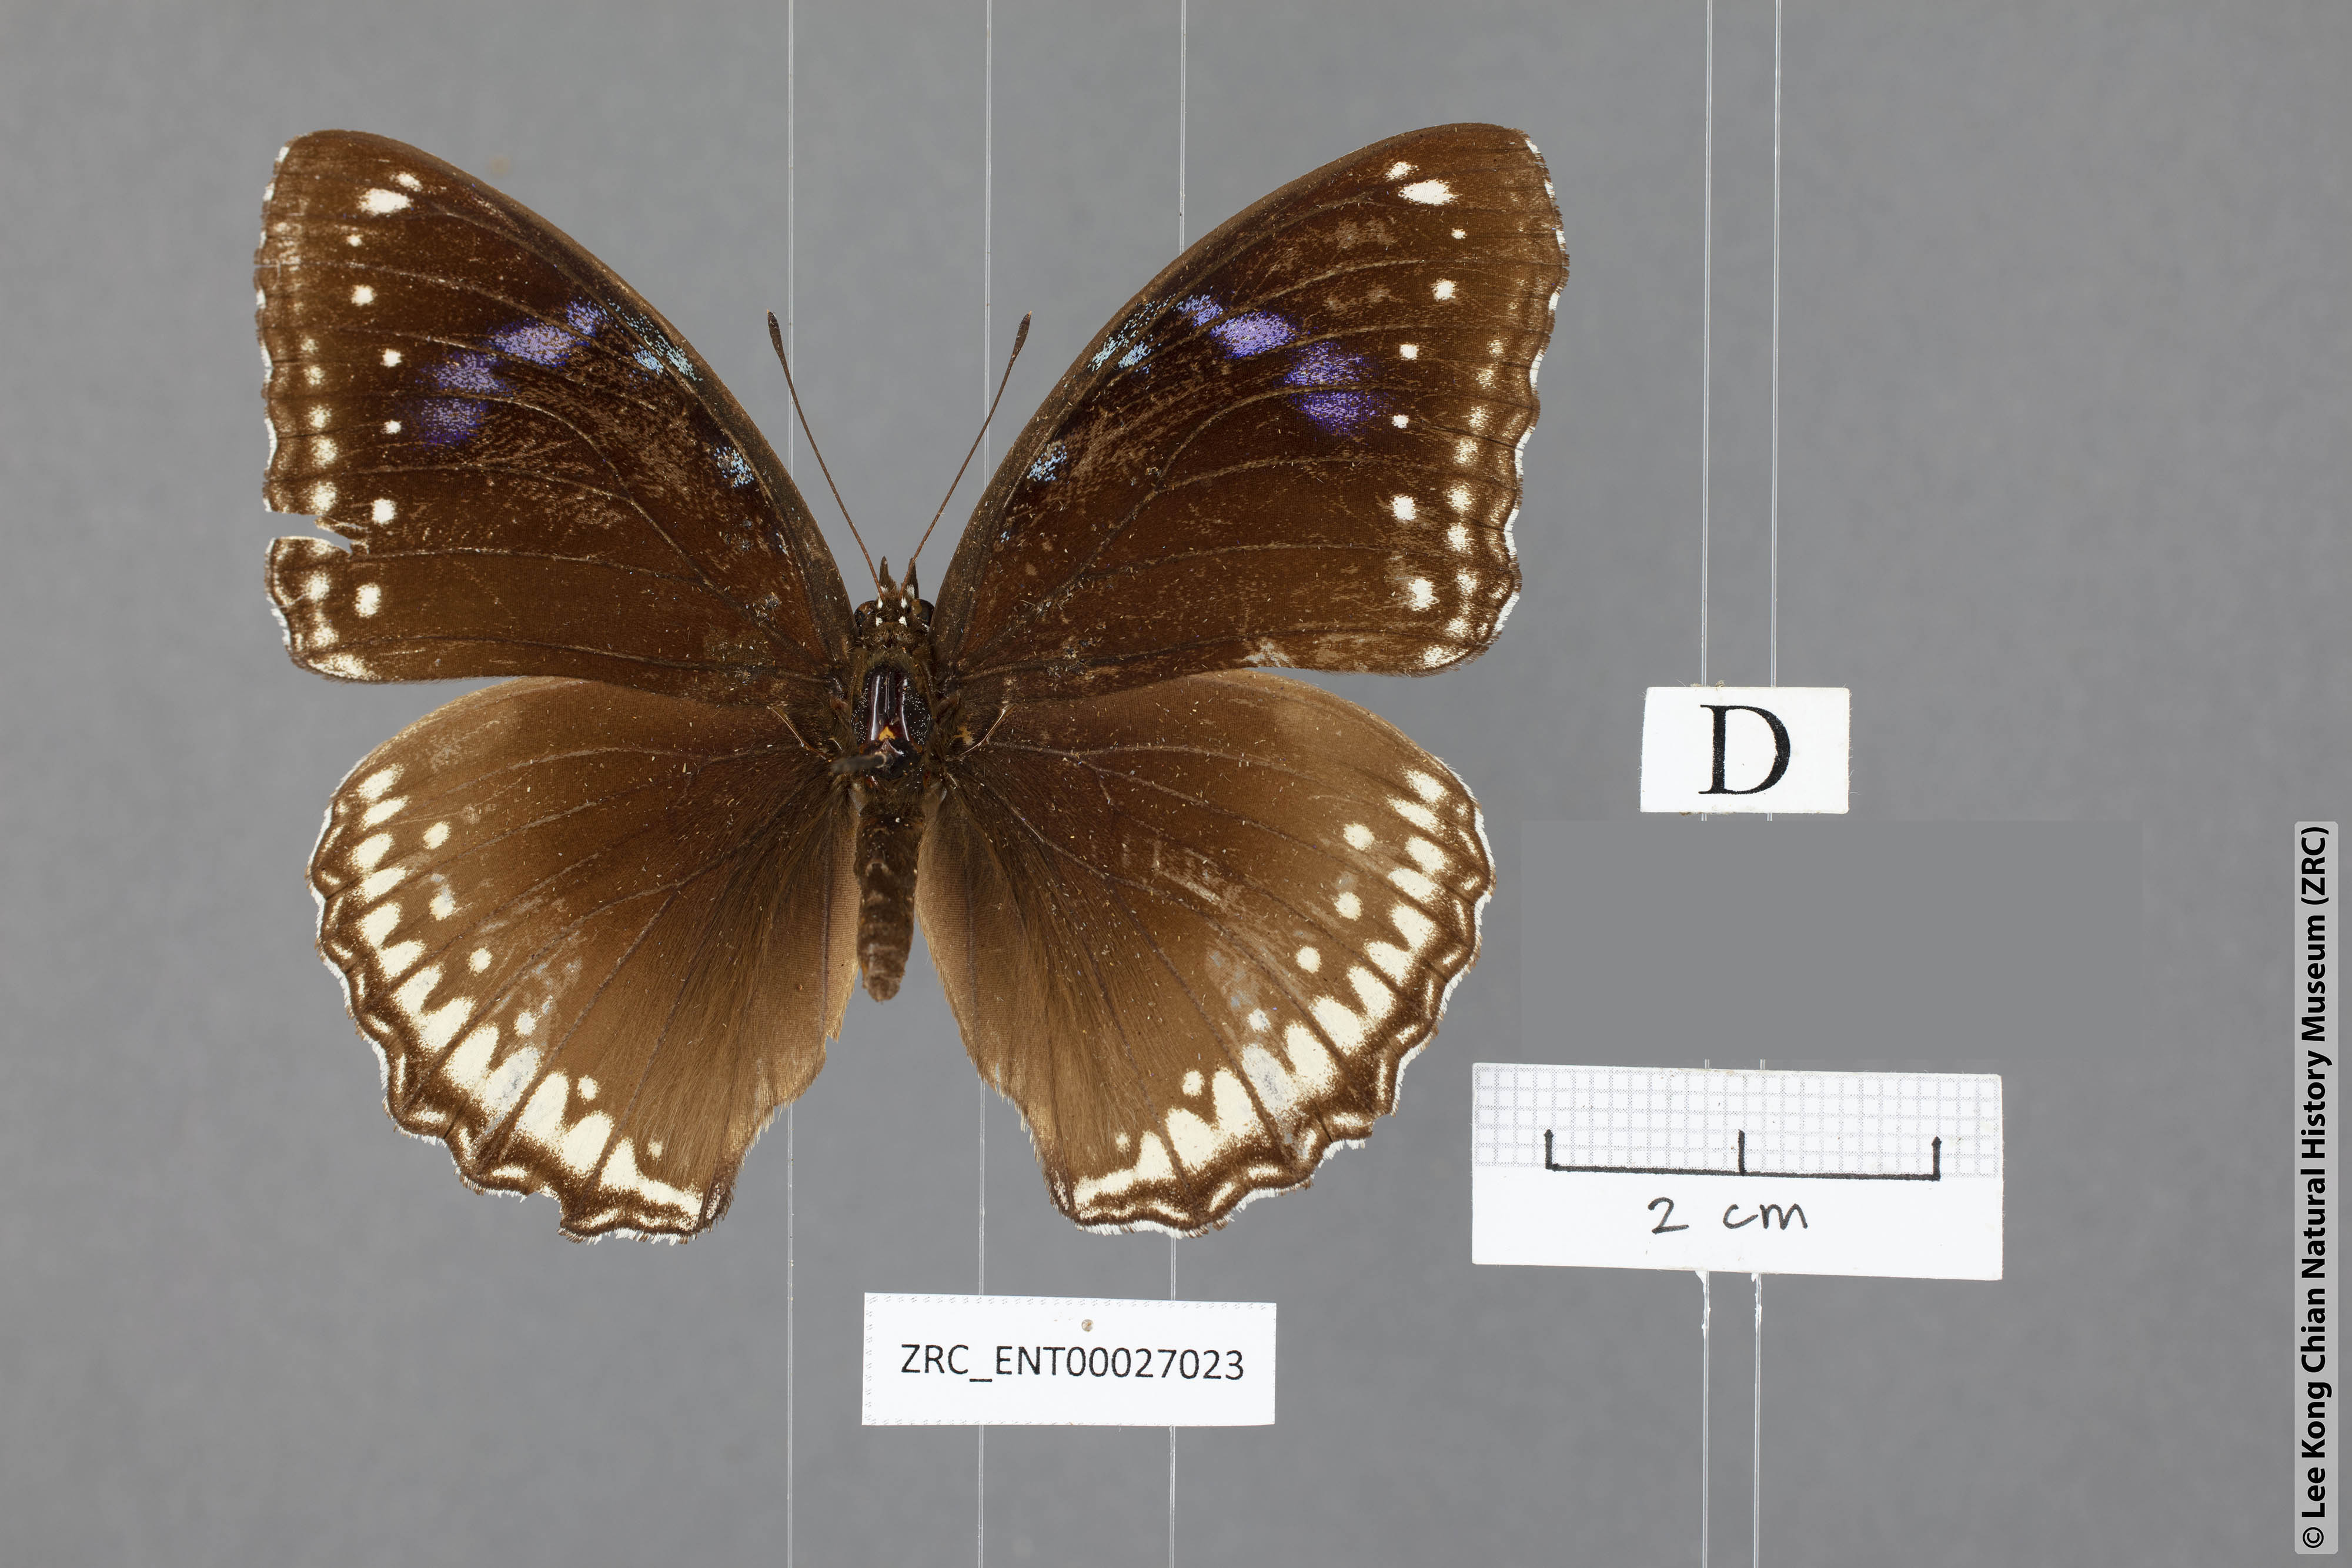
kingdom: Animalia
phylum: Arthropoda
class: Insecta
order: Lepidoptera
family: Nymphalidae
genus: Hypolimnas
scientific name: Hypolimnas bolina
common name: Great eggfly
